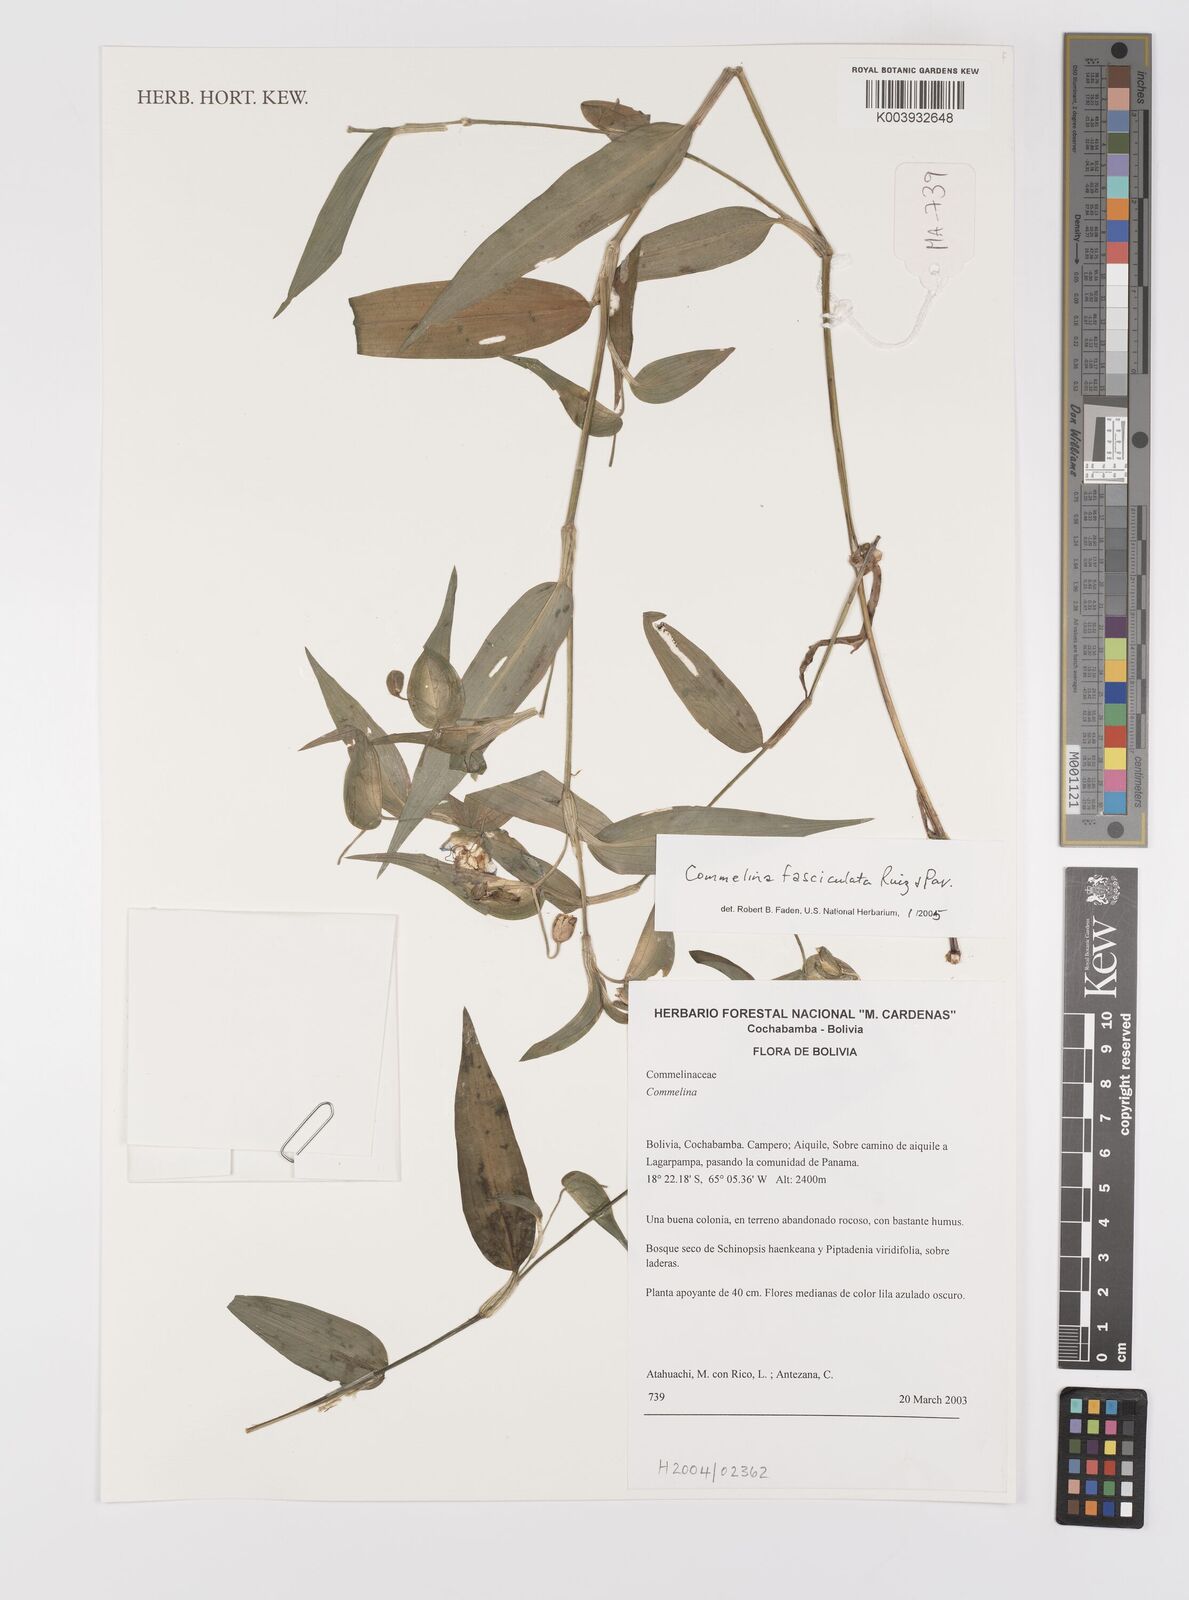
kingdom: Plantae
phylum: Tracheophyta
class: Liliopsida
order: Commelinales
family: Commelinaceae
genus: Commelina
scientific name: Commelina tuberosa
